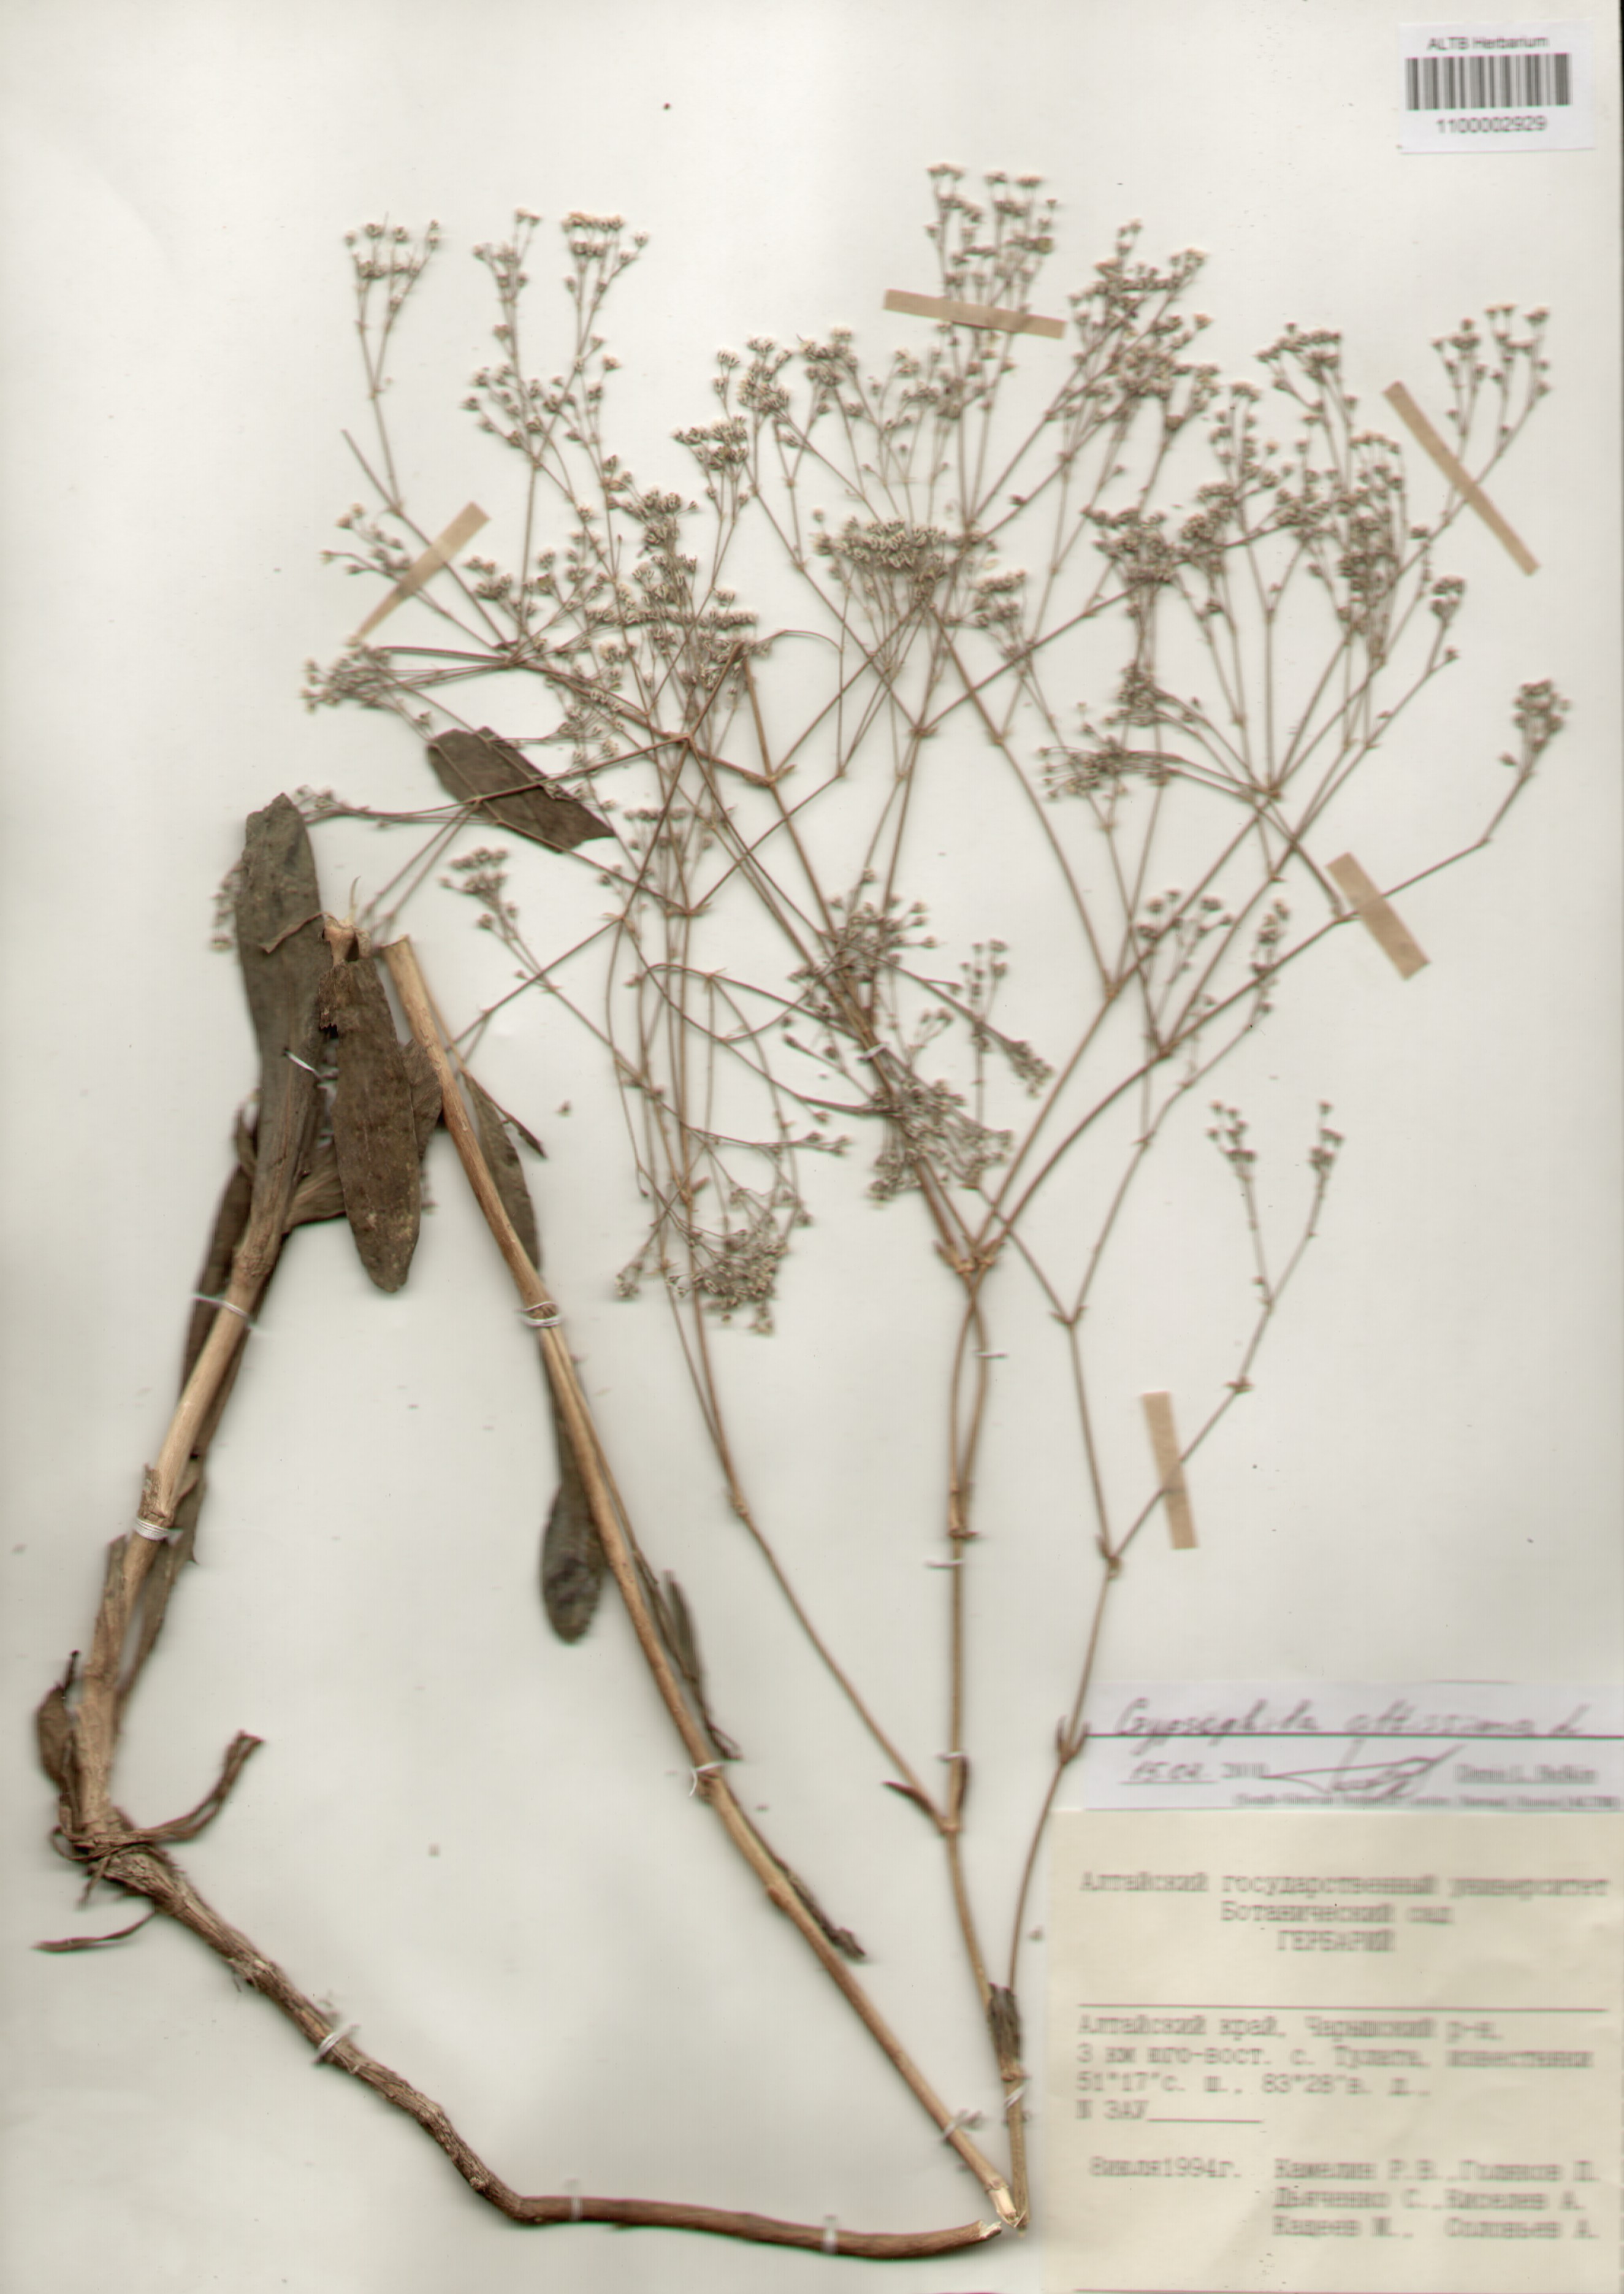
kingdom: Plantae
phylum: Tracheophyta
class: Magnoliopsida
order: Caryophyllales
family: Caryophyllaceae
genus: Gypsophila
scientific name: Gypsophila altissima
